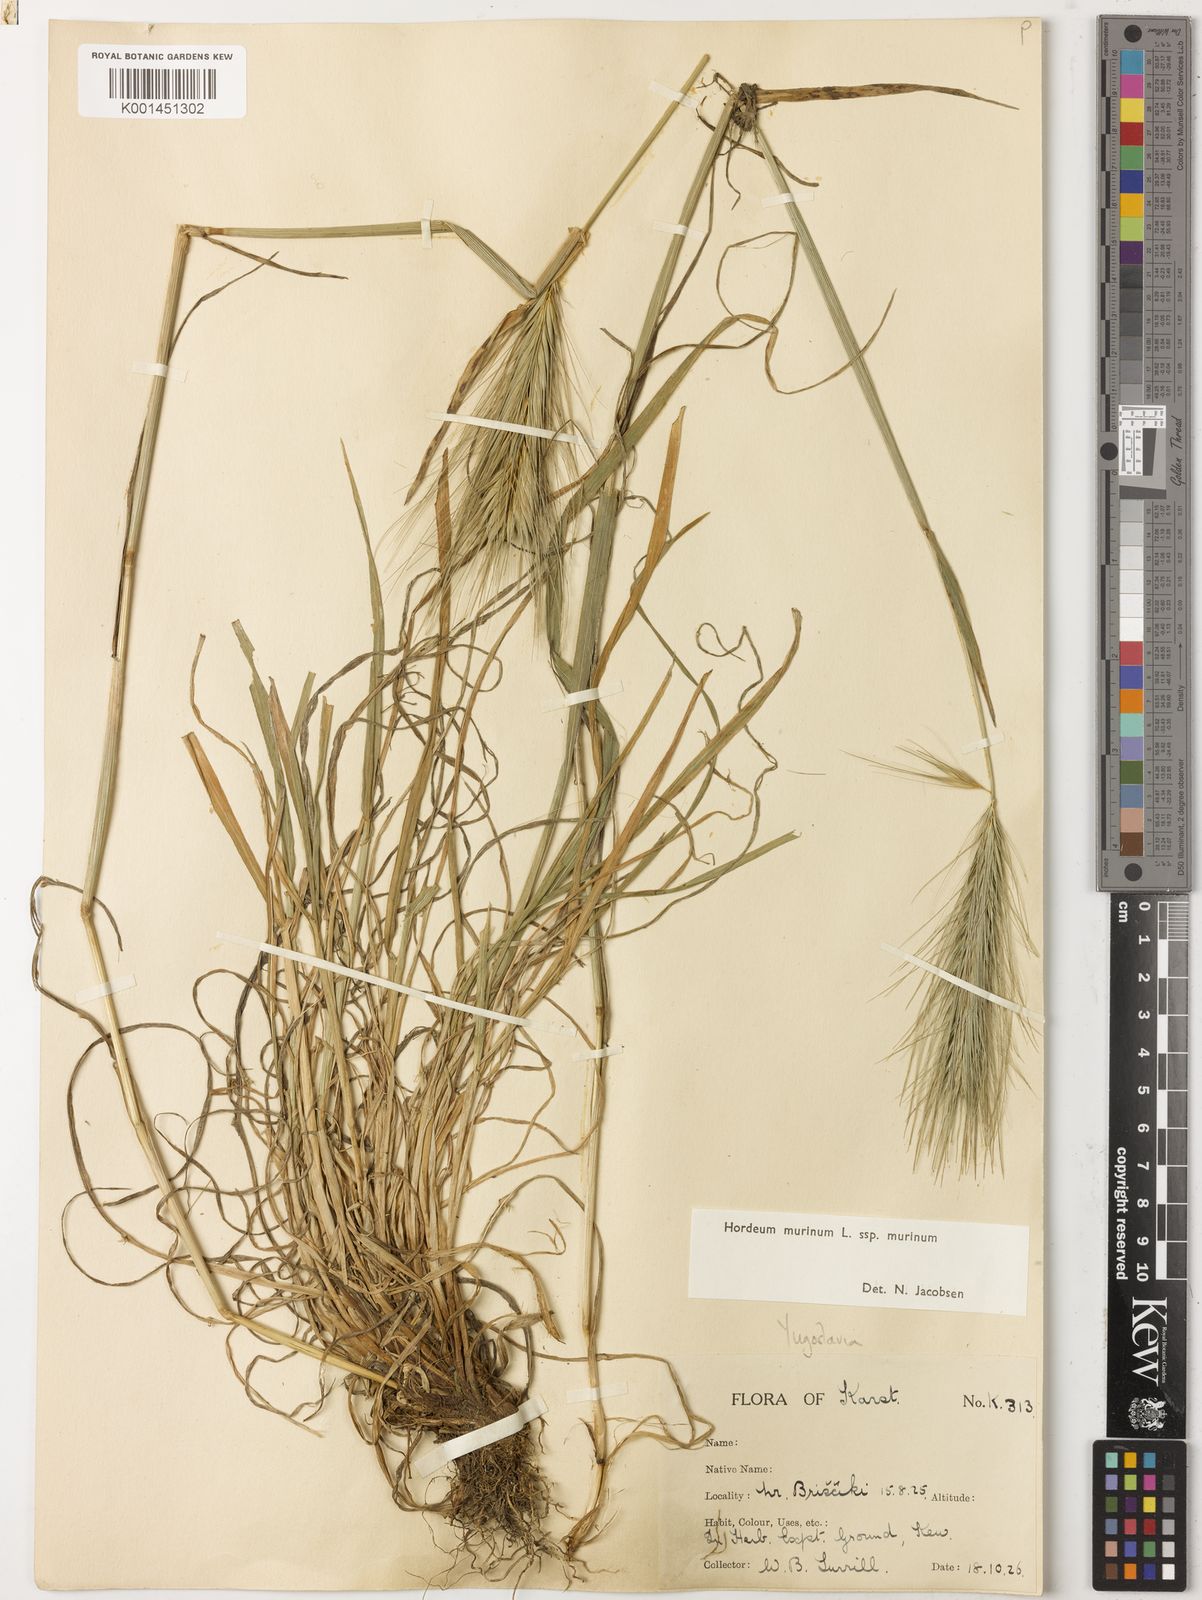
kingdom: Plantae
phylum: Tracheophyta
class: Liliopsida
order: Poales
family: Poaceae
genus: Hordeum
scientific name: Hordeum murinum
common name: Wall barley
